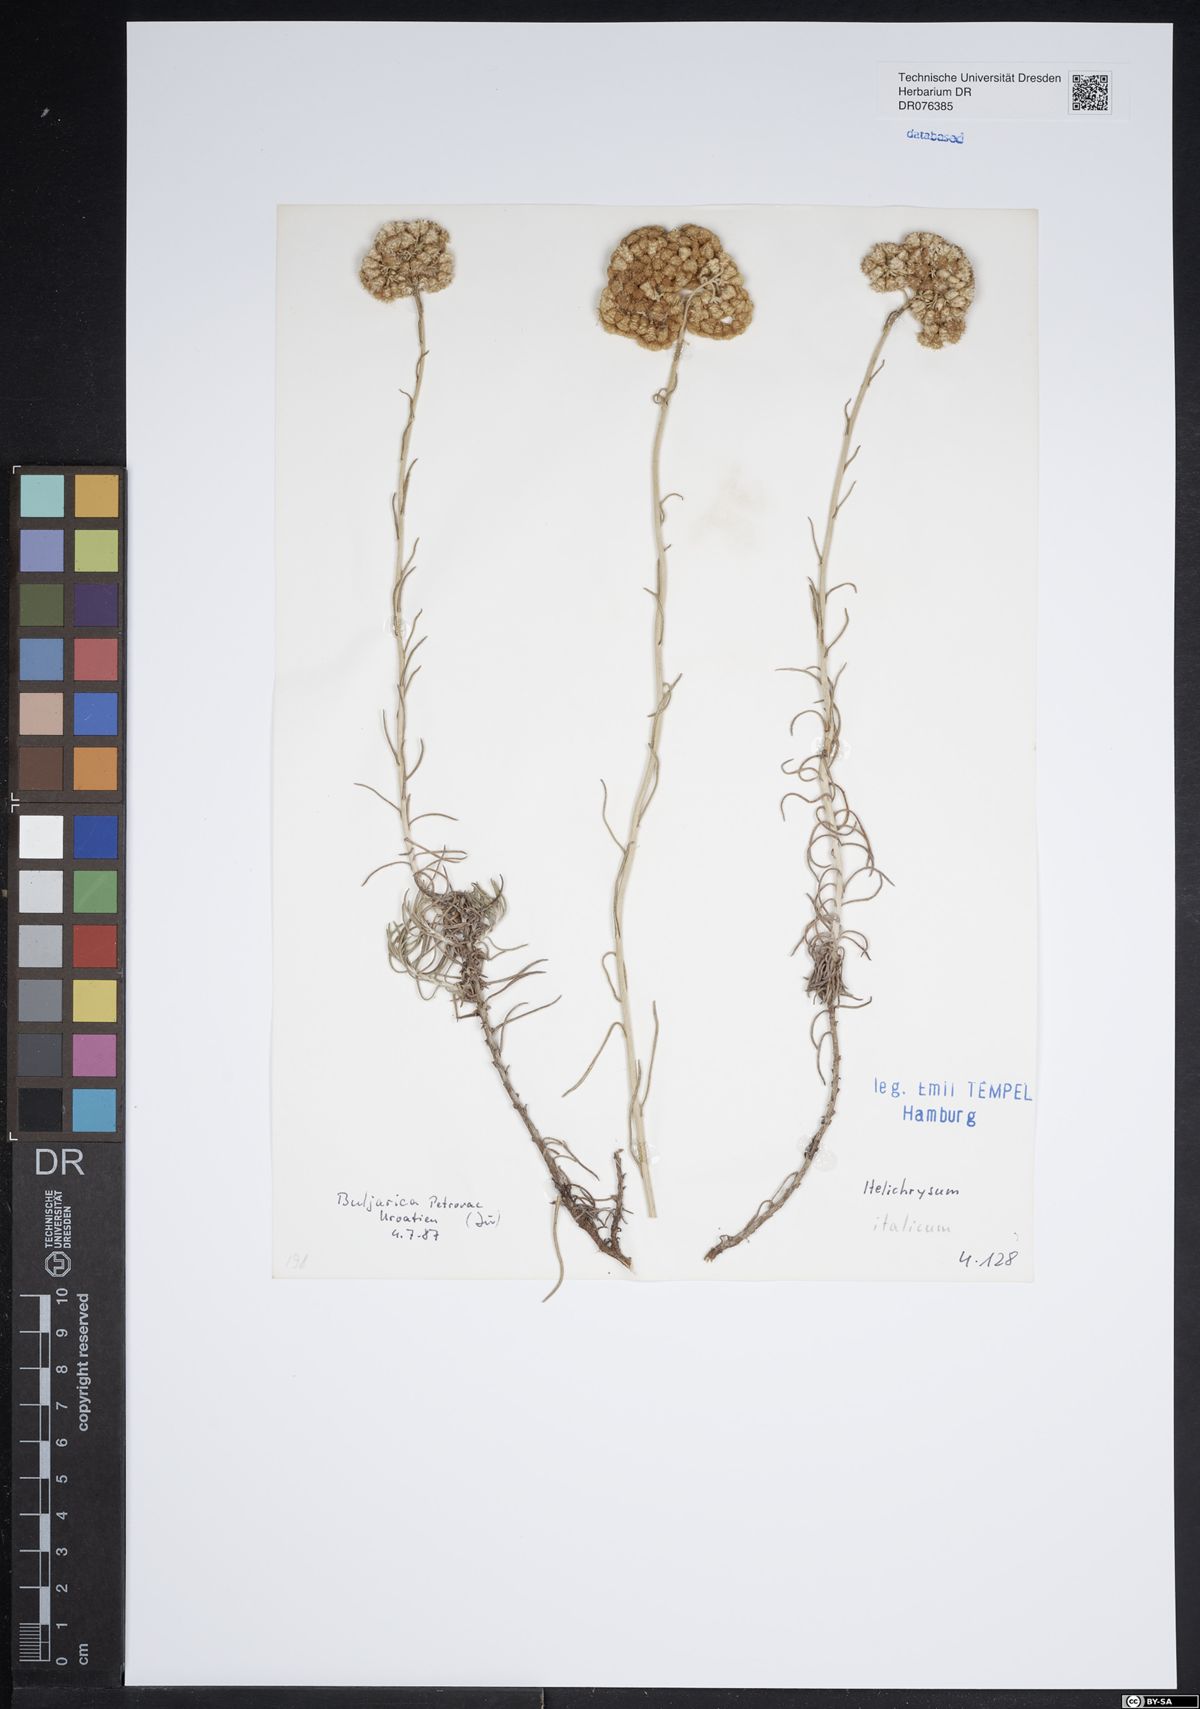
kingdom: Plantae
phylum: Tracheophyta
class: Magnoliopsida
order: Asterales
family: Asteraceae
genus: Helichrysum
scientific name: Helichrysum italicum
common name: Curryplant
